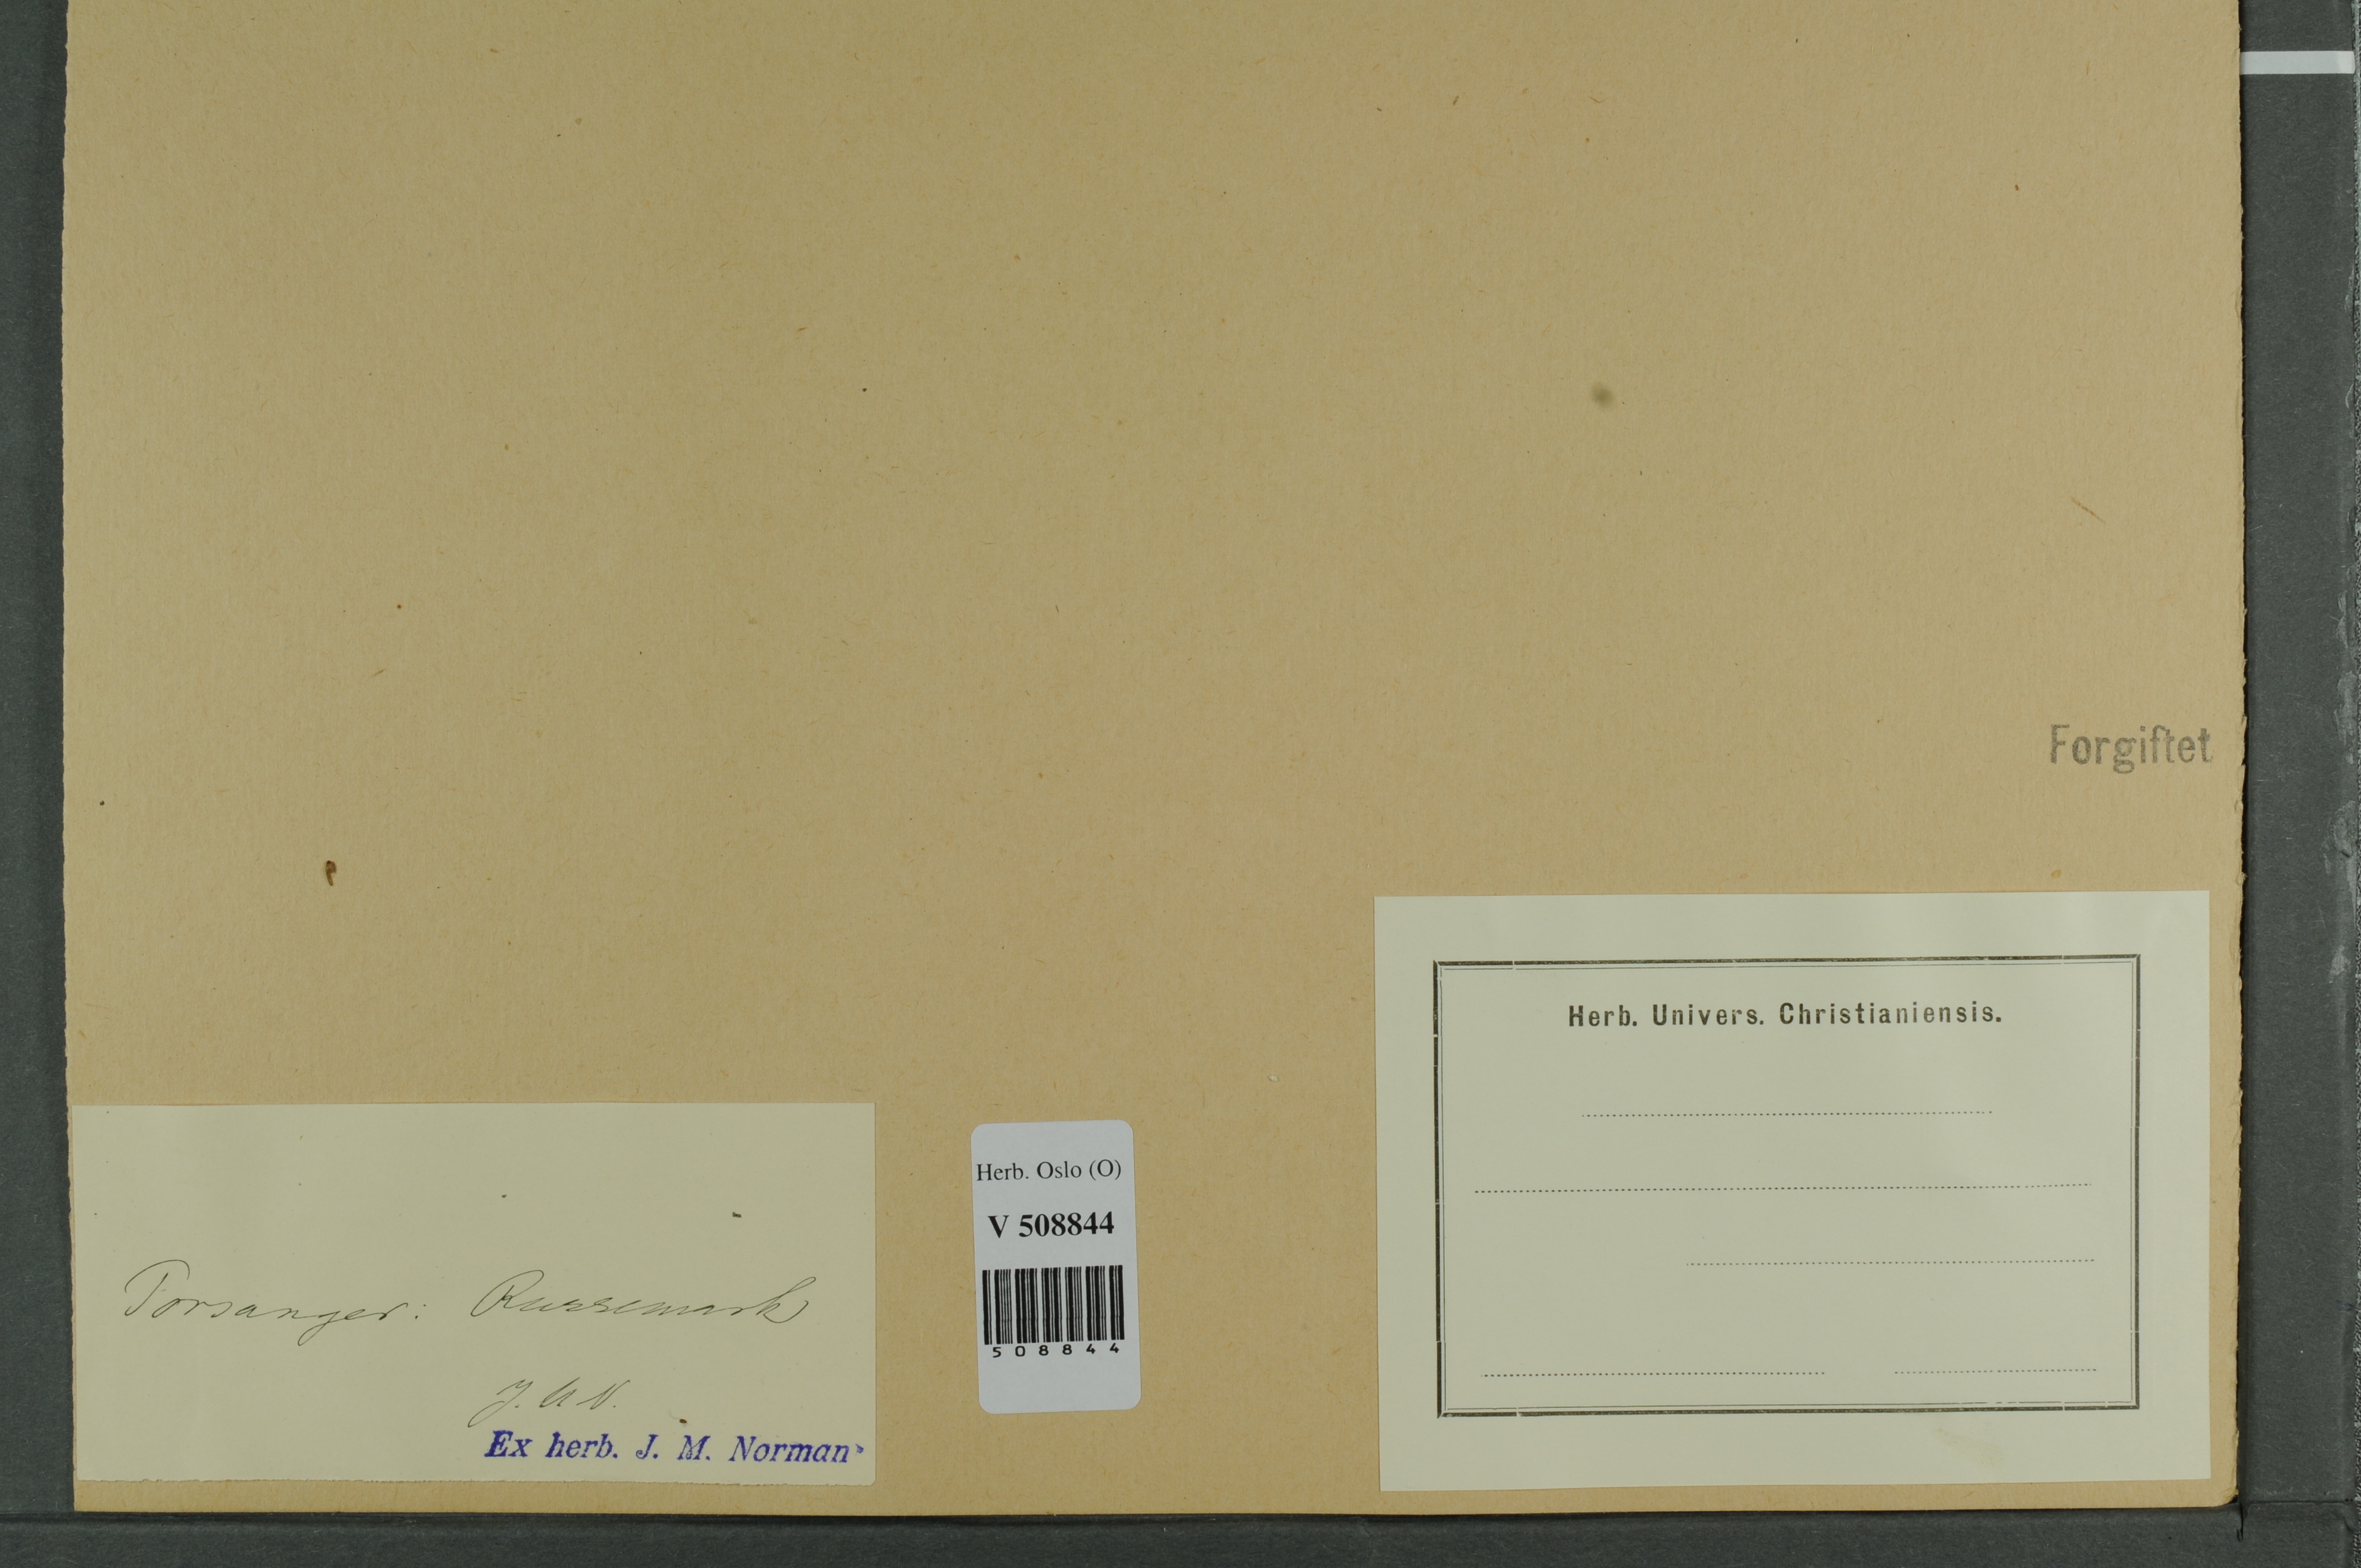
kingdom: Plantae
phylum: Tracheophyta
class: Pinopsida
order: Pinales
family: Cupressaceae
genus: Juniperus
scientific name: Juniperus communis
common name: Common juniper
